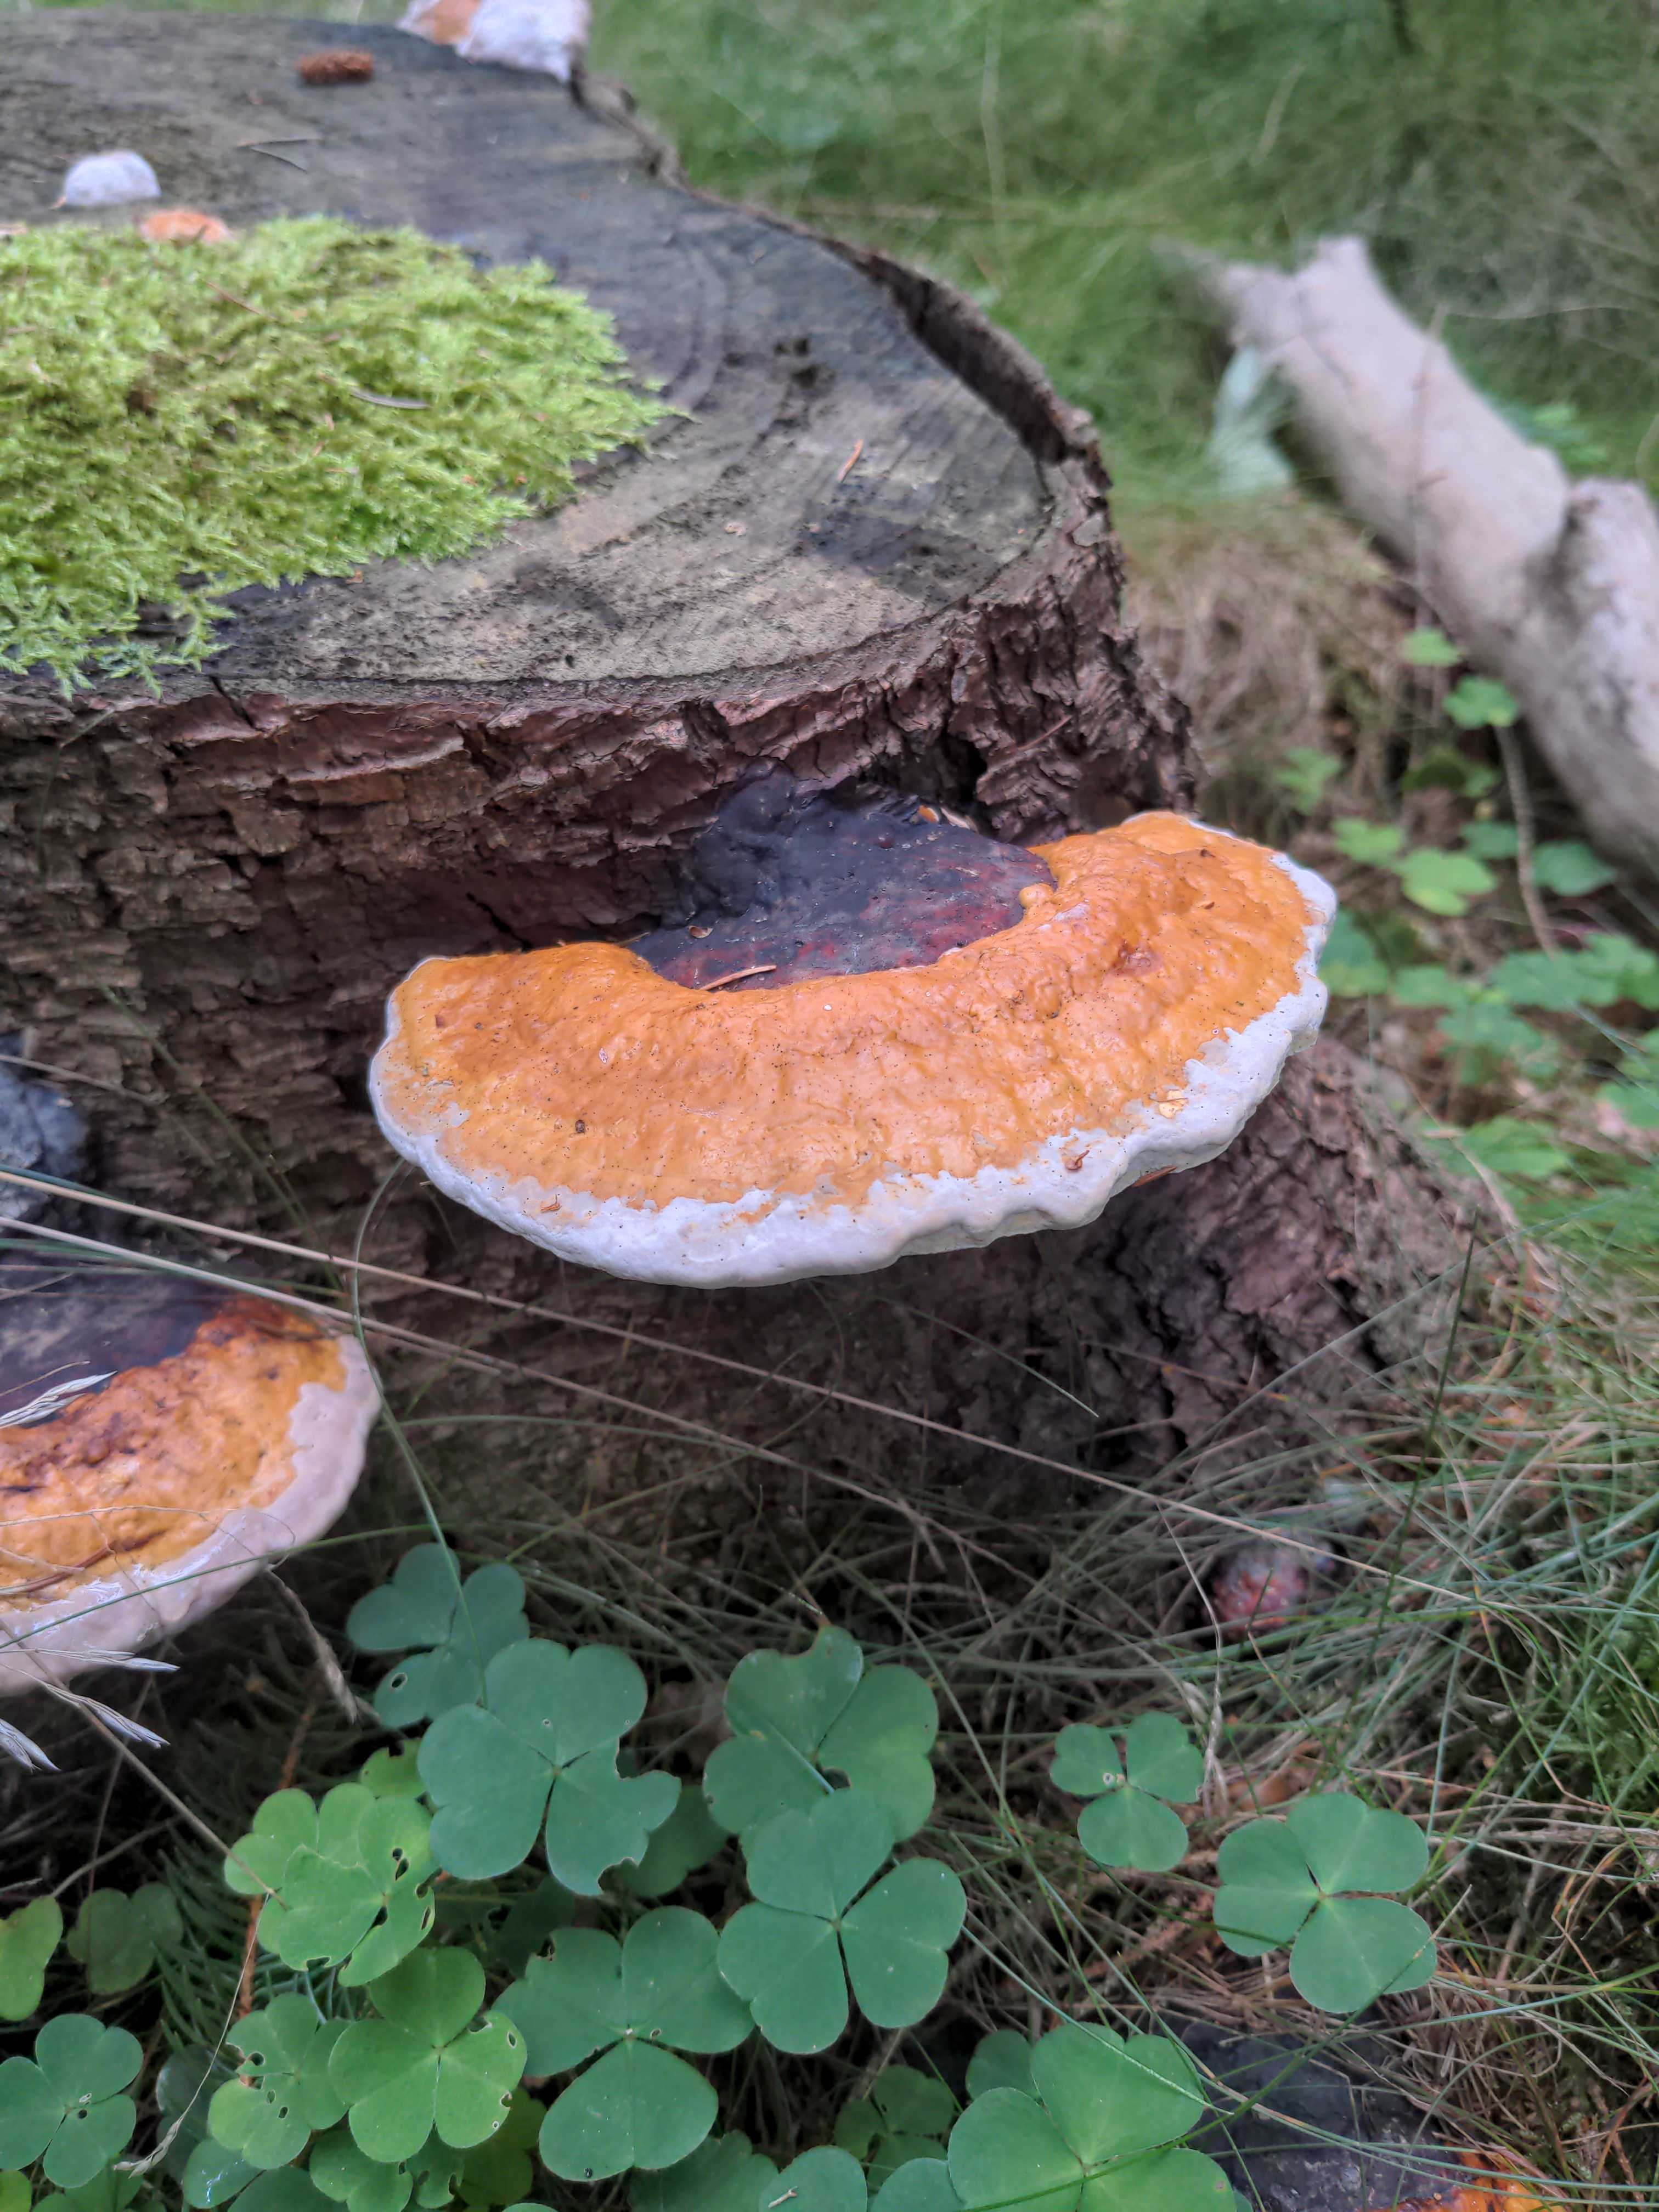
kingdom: Fungi
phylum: Basidiomycota
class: Agaricomycetes
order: Polyporales
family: Fomitopsidaceae
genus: Fomitopsis
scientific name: Fomitopsis pinicola
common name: randbæltet hovporesvamp
